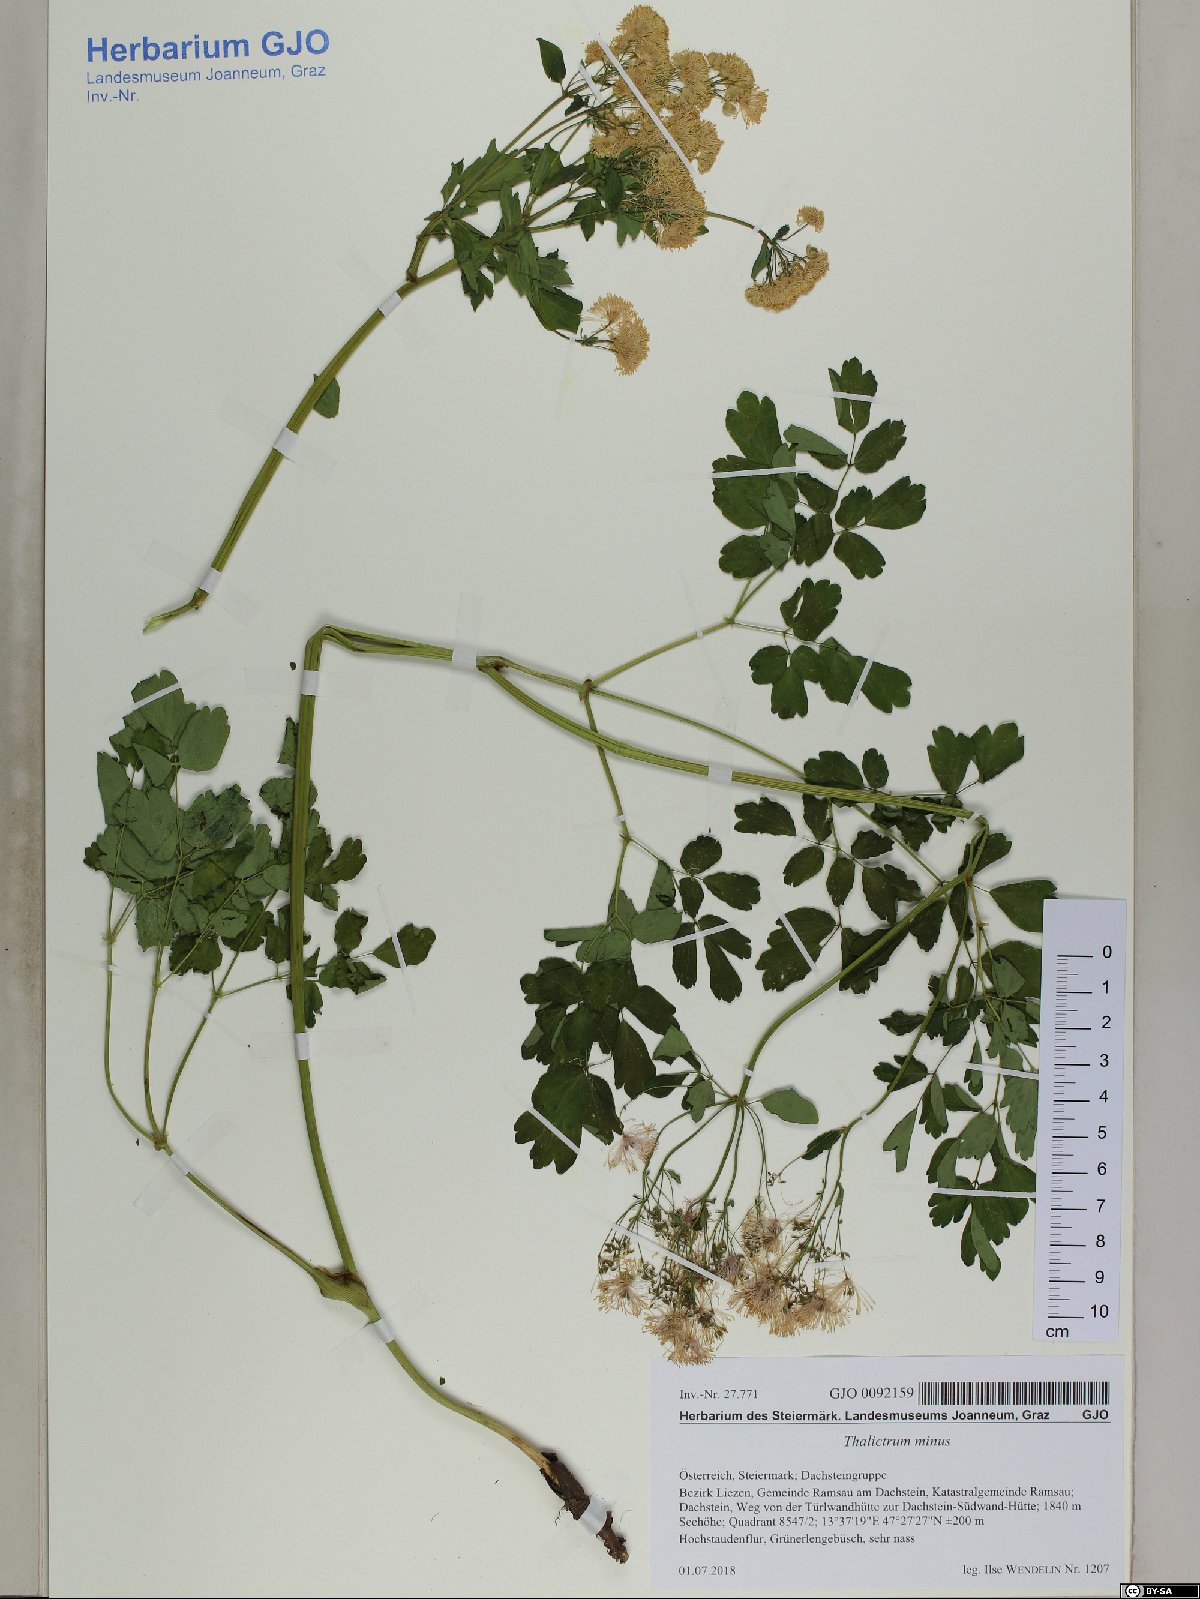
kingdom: Plantae
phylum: Tracheophyta
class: Magnoliopsida
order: Ranunculales
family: Ranunculaceae
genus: Thalictrum
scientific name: Thalictrum minus
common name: Lesser meadow-rue
